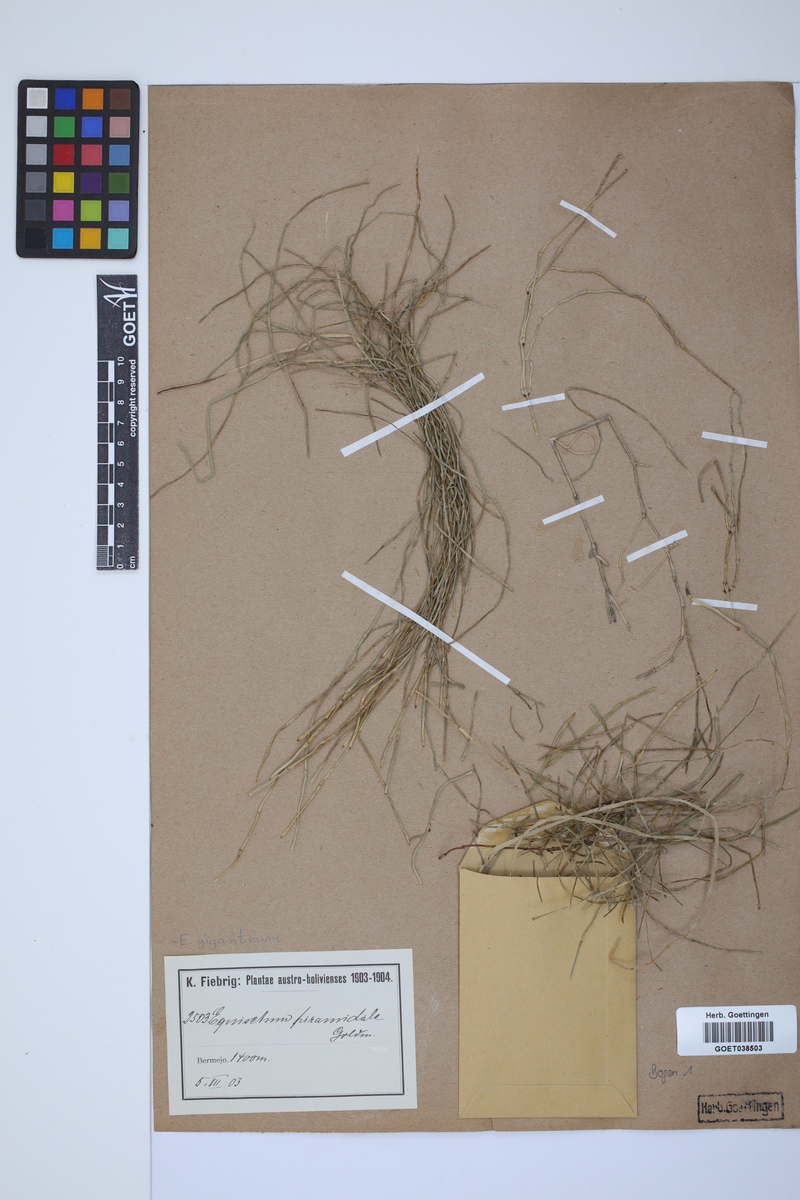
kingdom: Plantae
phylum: Tracheophyta
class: Polypodiopsida
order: Equisetales
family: Equisetaceae
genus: Equisetum
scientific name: Equisetum giganteum
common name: Giant horsetail
